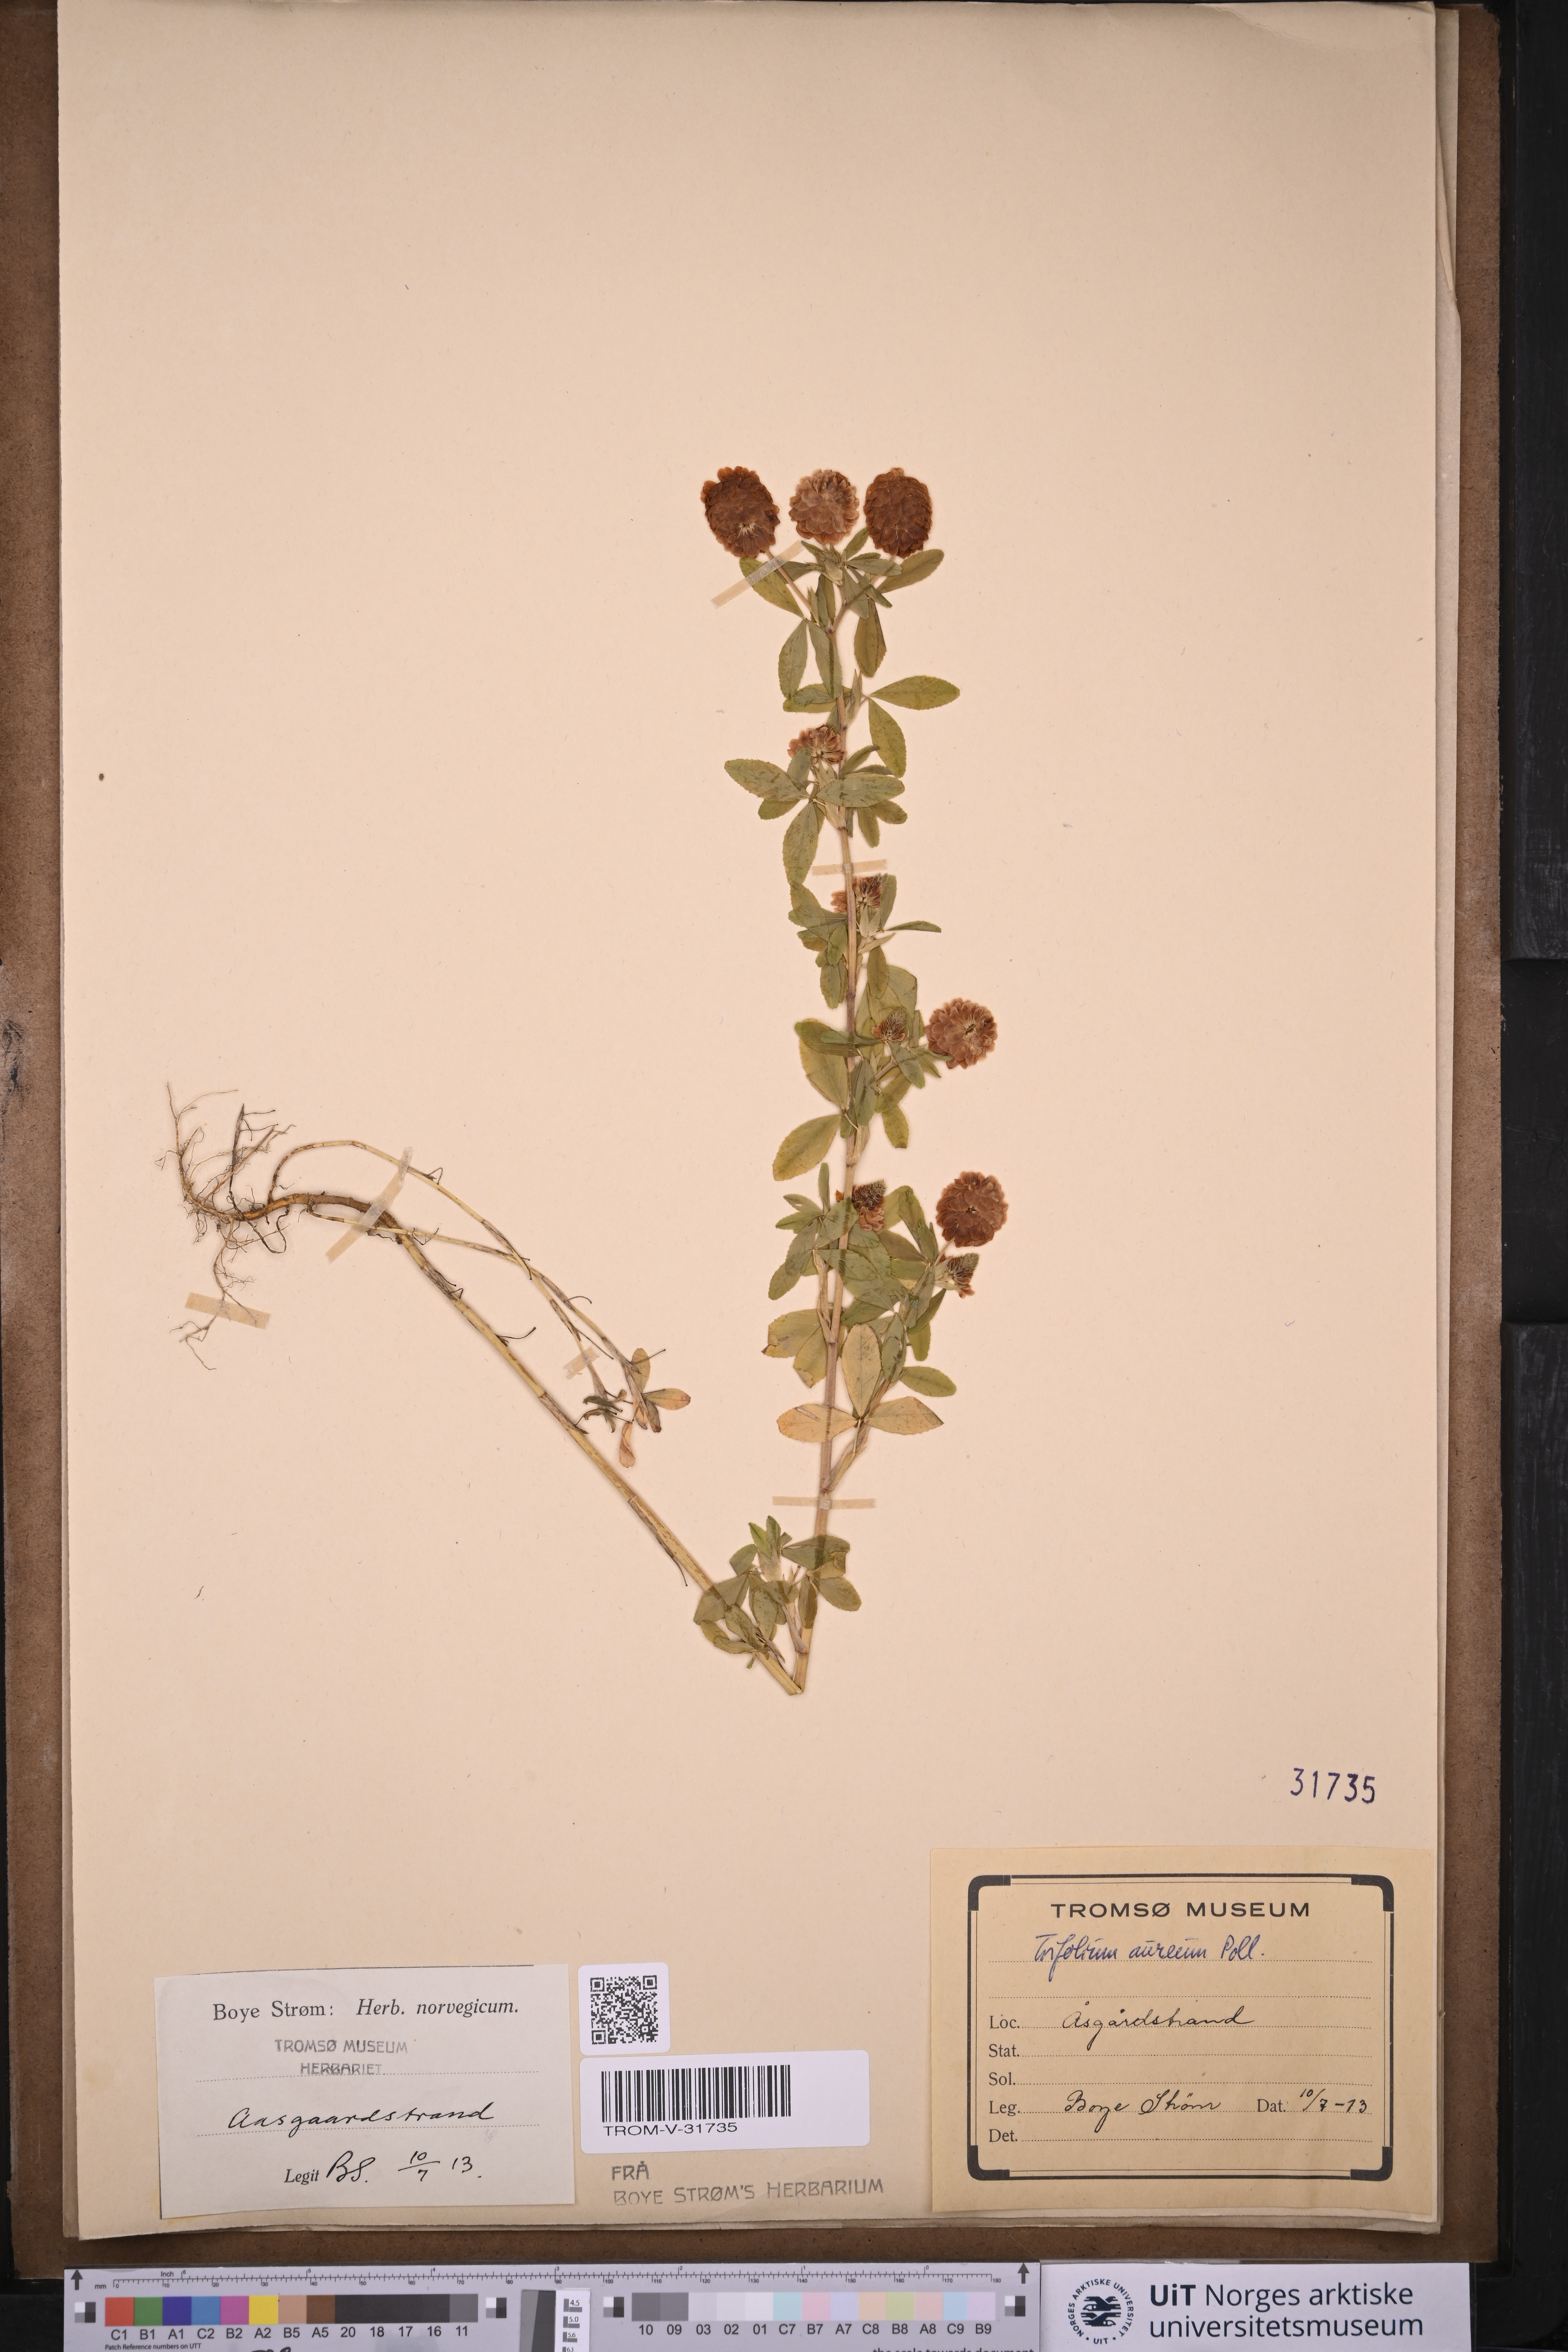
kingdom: Plantae
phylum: Tracheophyta
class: Magnoliopsida
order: Fabales
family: Fabaceae
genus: Trifolium
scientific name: Trifolium aureum
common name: Golden clover
